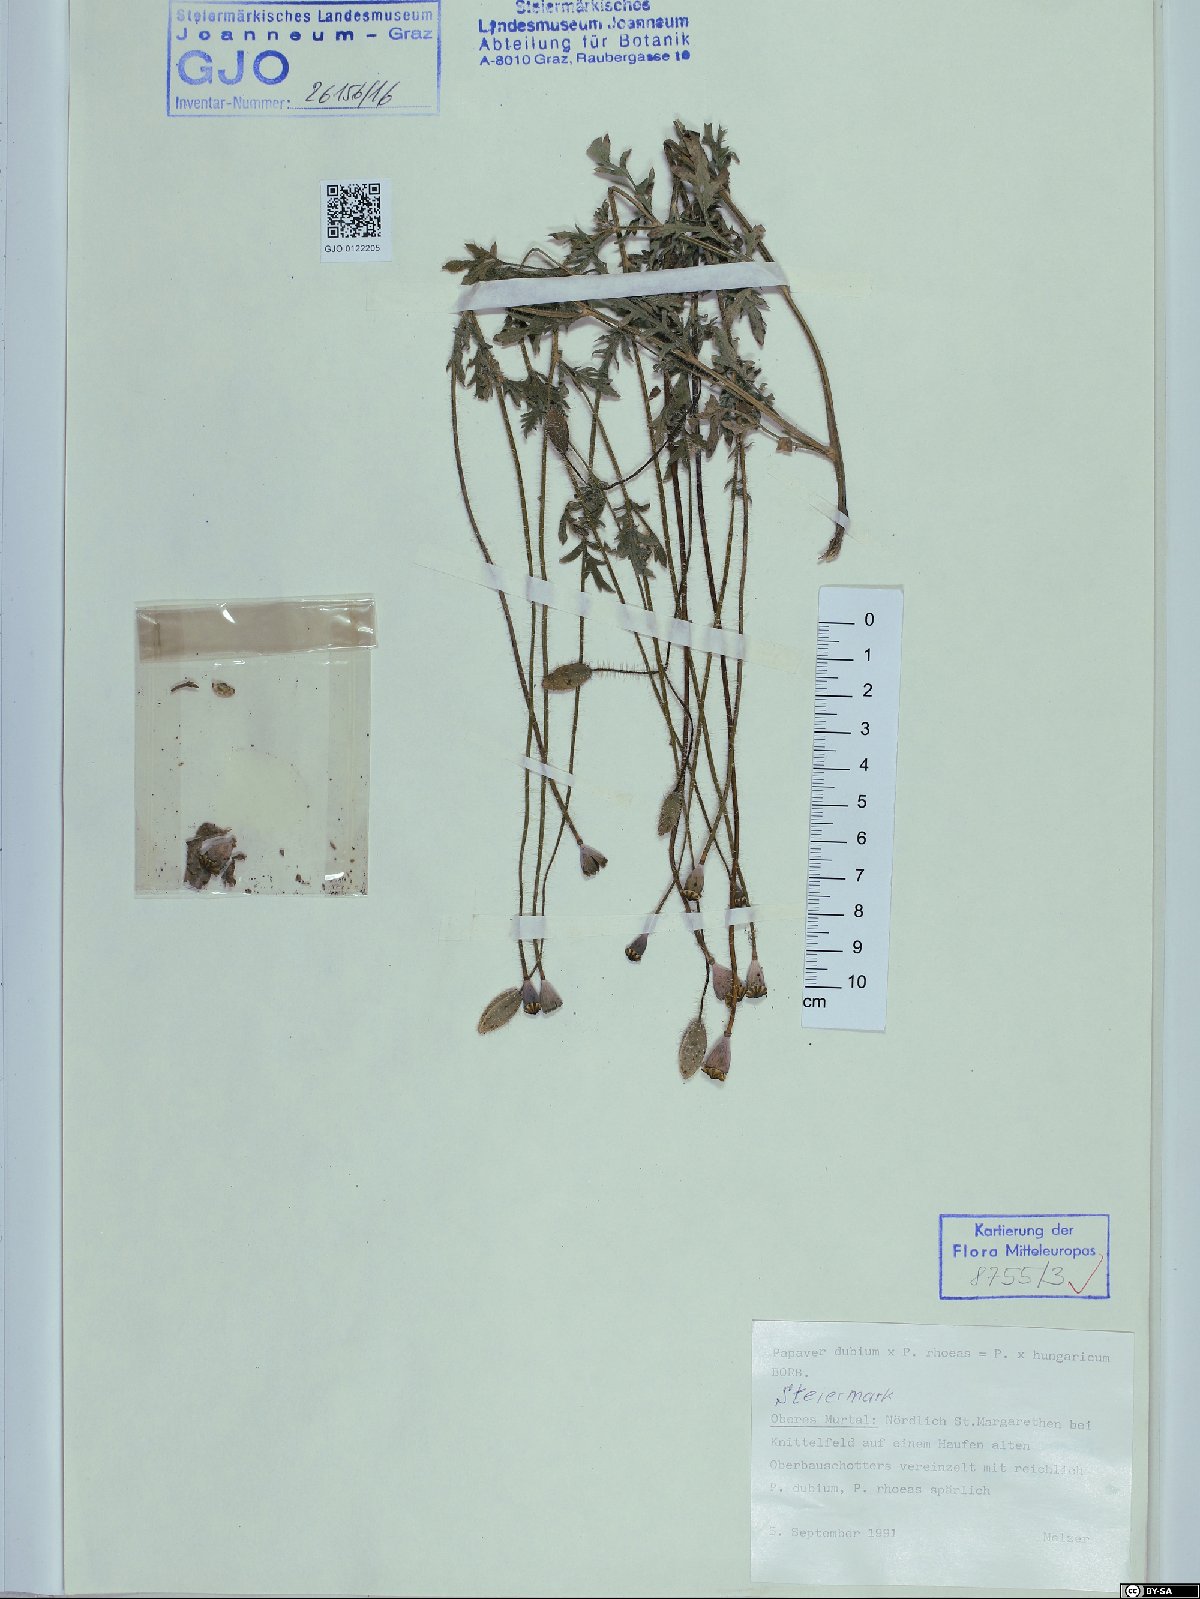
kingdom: Plantae
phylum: Tracheophyta
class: Magnoliopsida
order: Ranunculales
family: Papaveraceae
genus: Papaver
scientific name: Papaver strigosum
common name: Poppy
